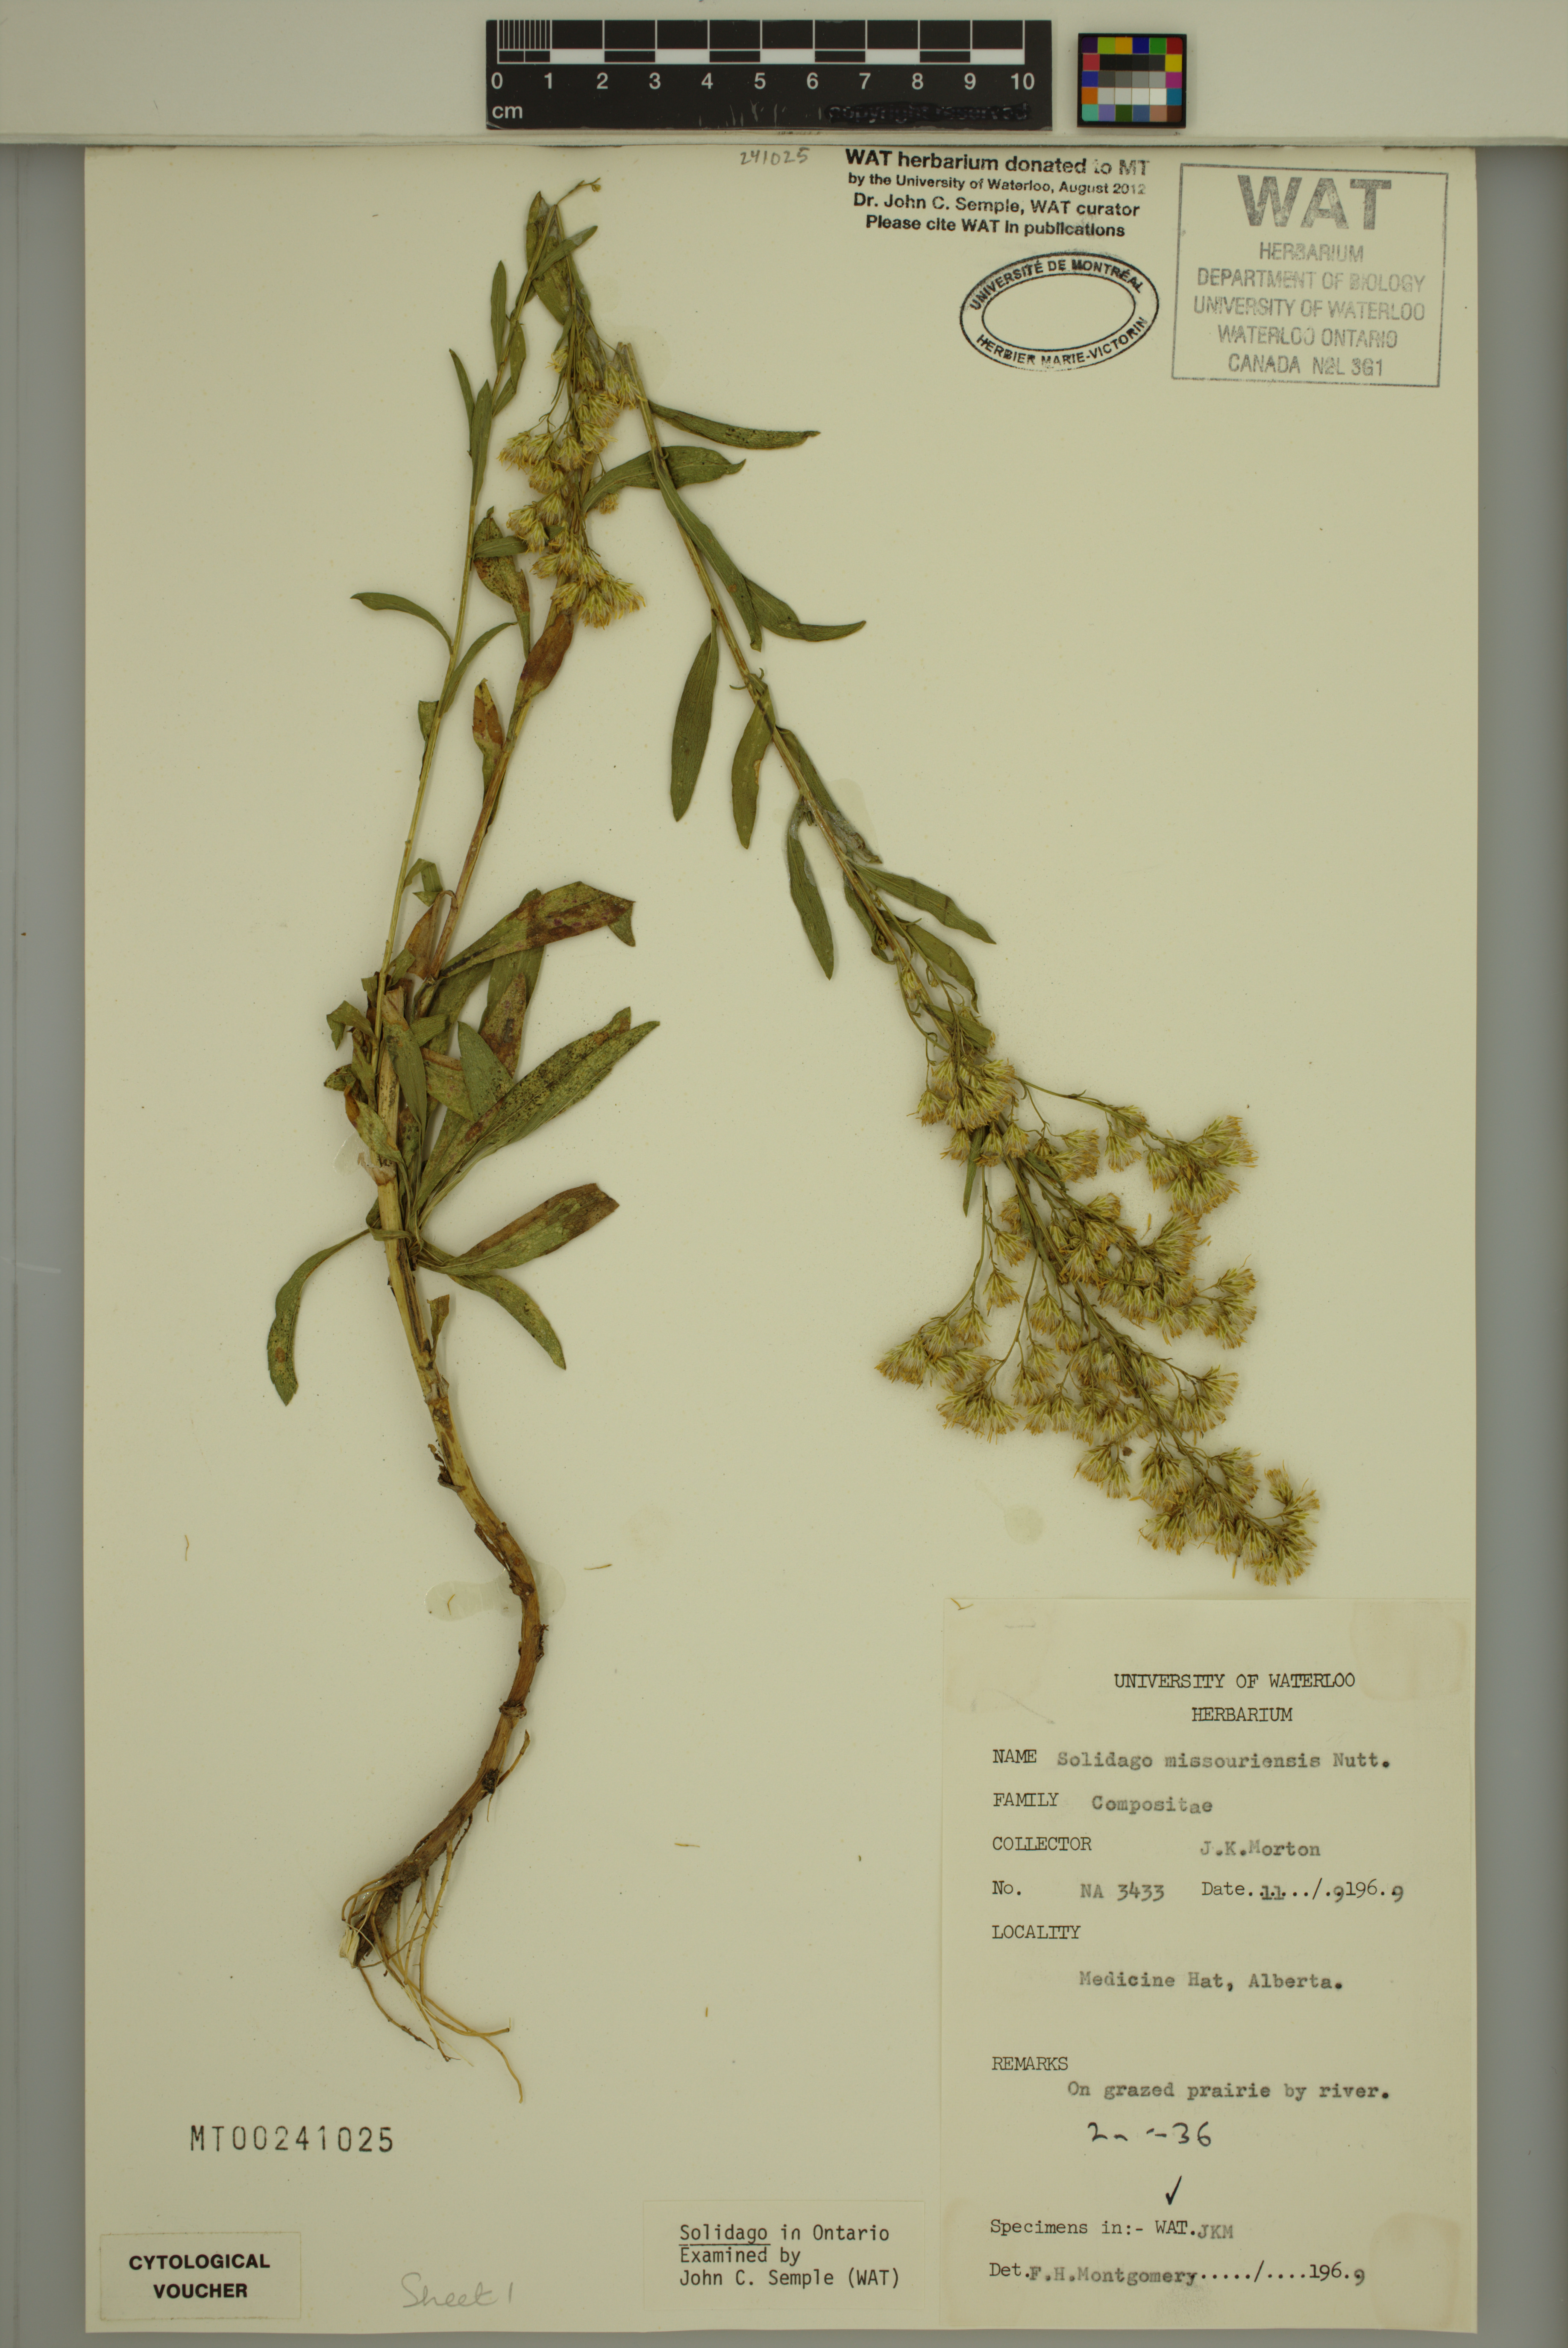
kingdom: Plantae
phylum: Tracheophyta
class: Magnoliopsida
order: Asterales
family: Asteraceae
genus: Solidago
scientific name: Solidago missouriensis
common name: Prairie goldenrod
